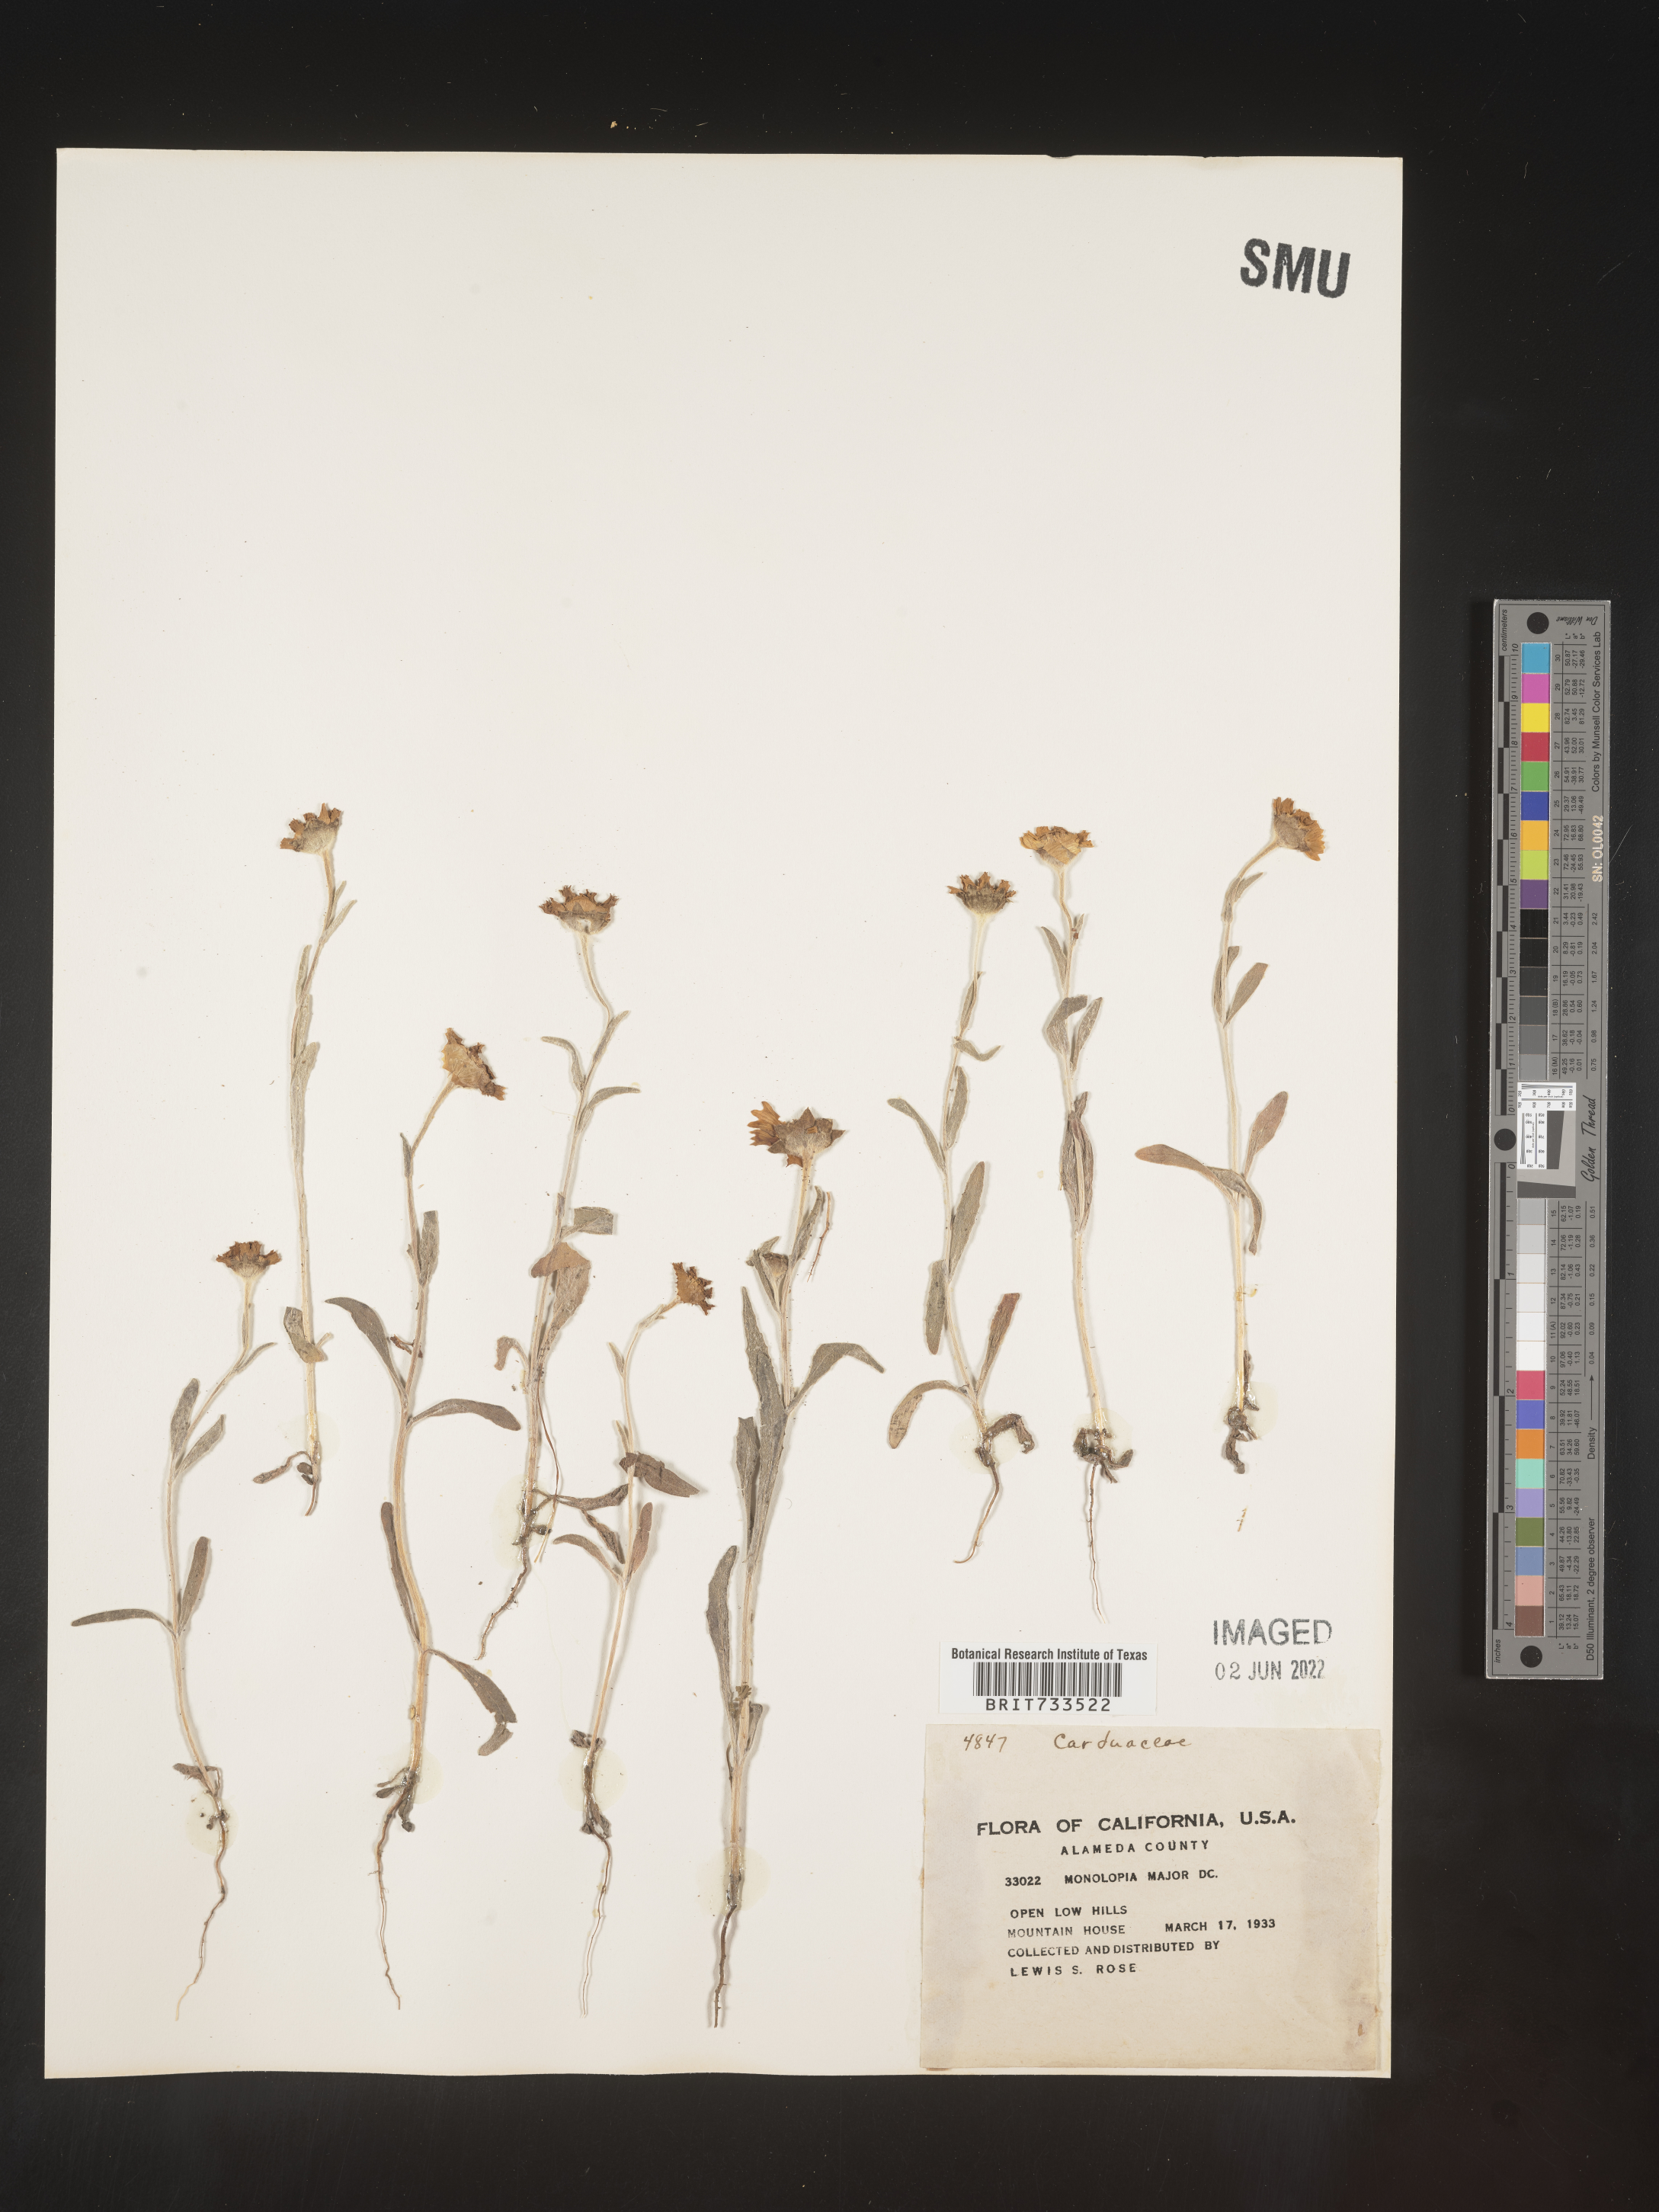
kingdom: Plantae
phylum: Tracheophyta
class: Magnoliopsida
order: Asterales
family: Asteraceae
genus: Monolopia
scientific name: Monolopia major
